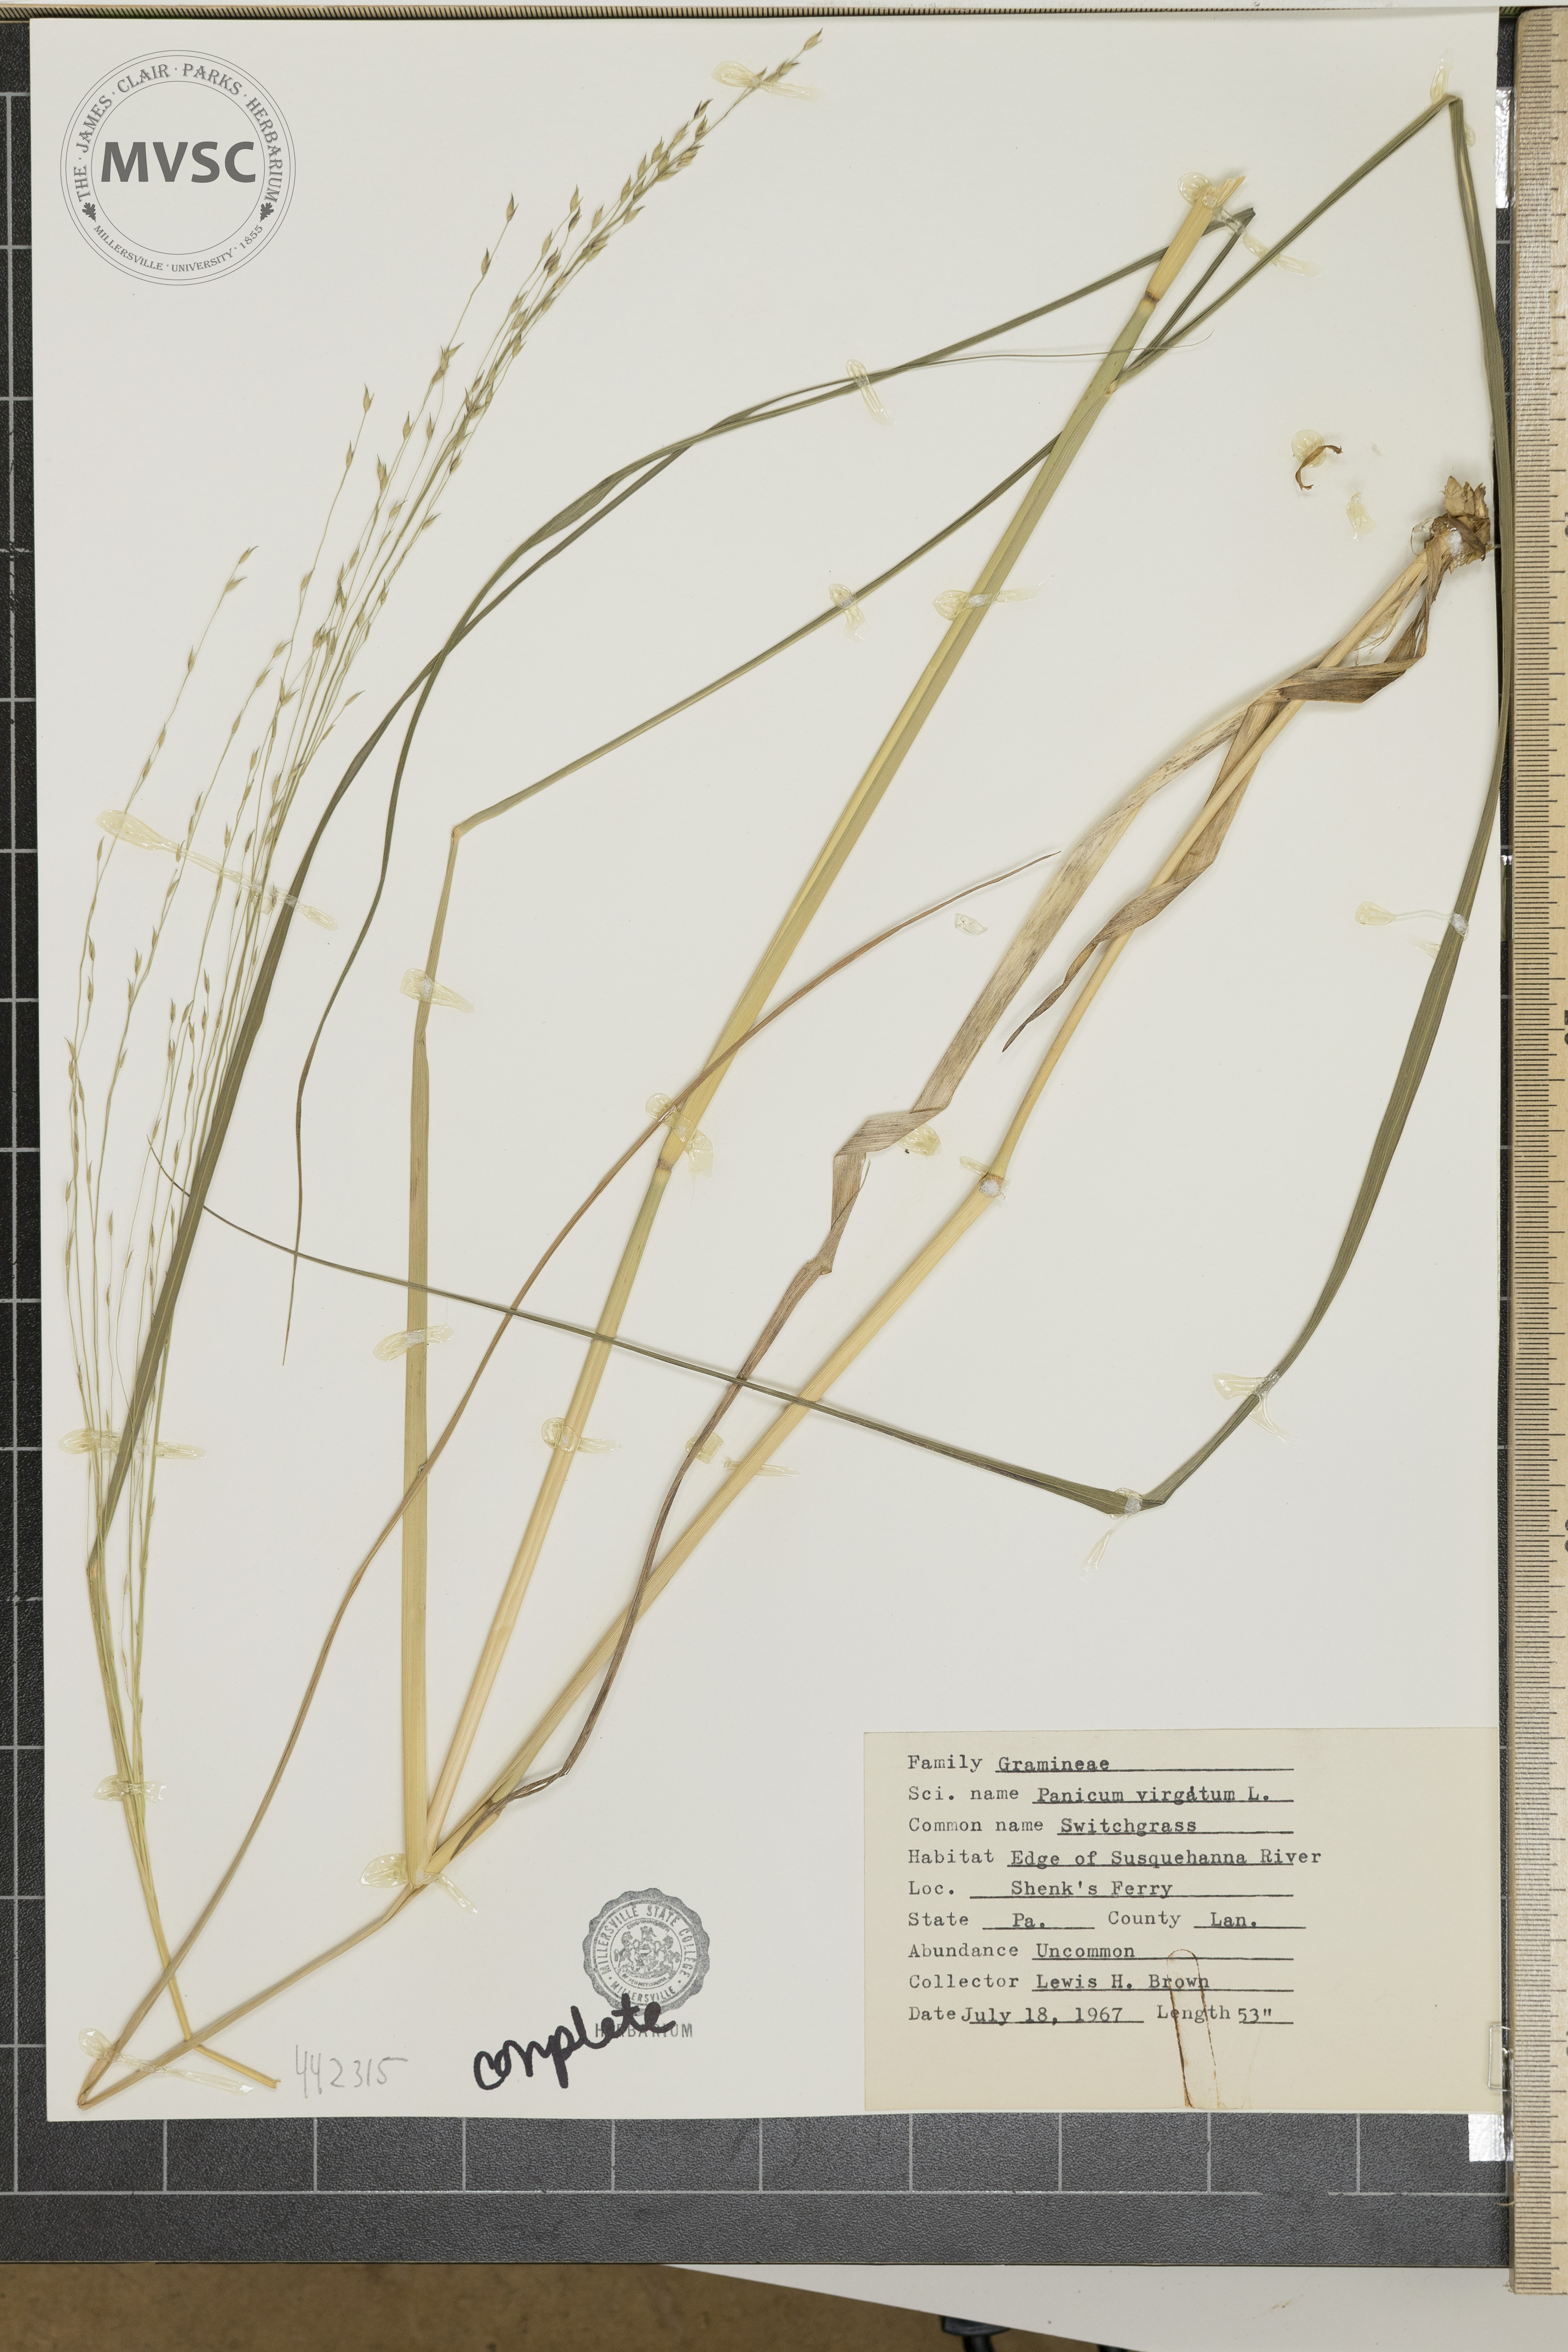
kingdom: Plantae
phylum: Tracheophyta
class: Liliopsida
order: Poales
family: Poaceae
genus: Panicum
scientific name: Panicum virgatum
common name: Switchgrass
